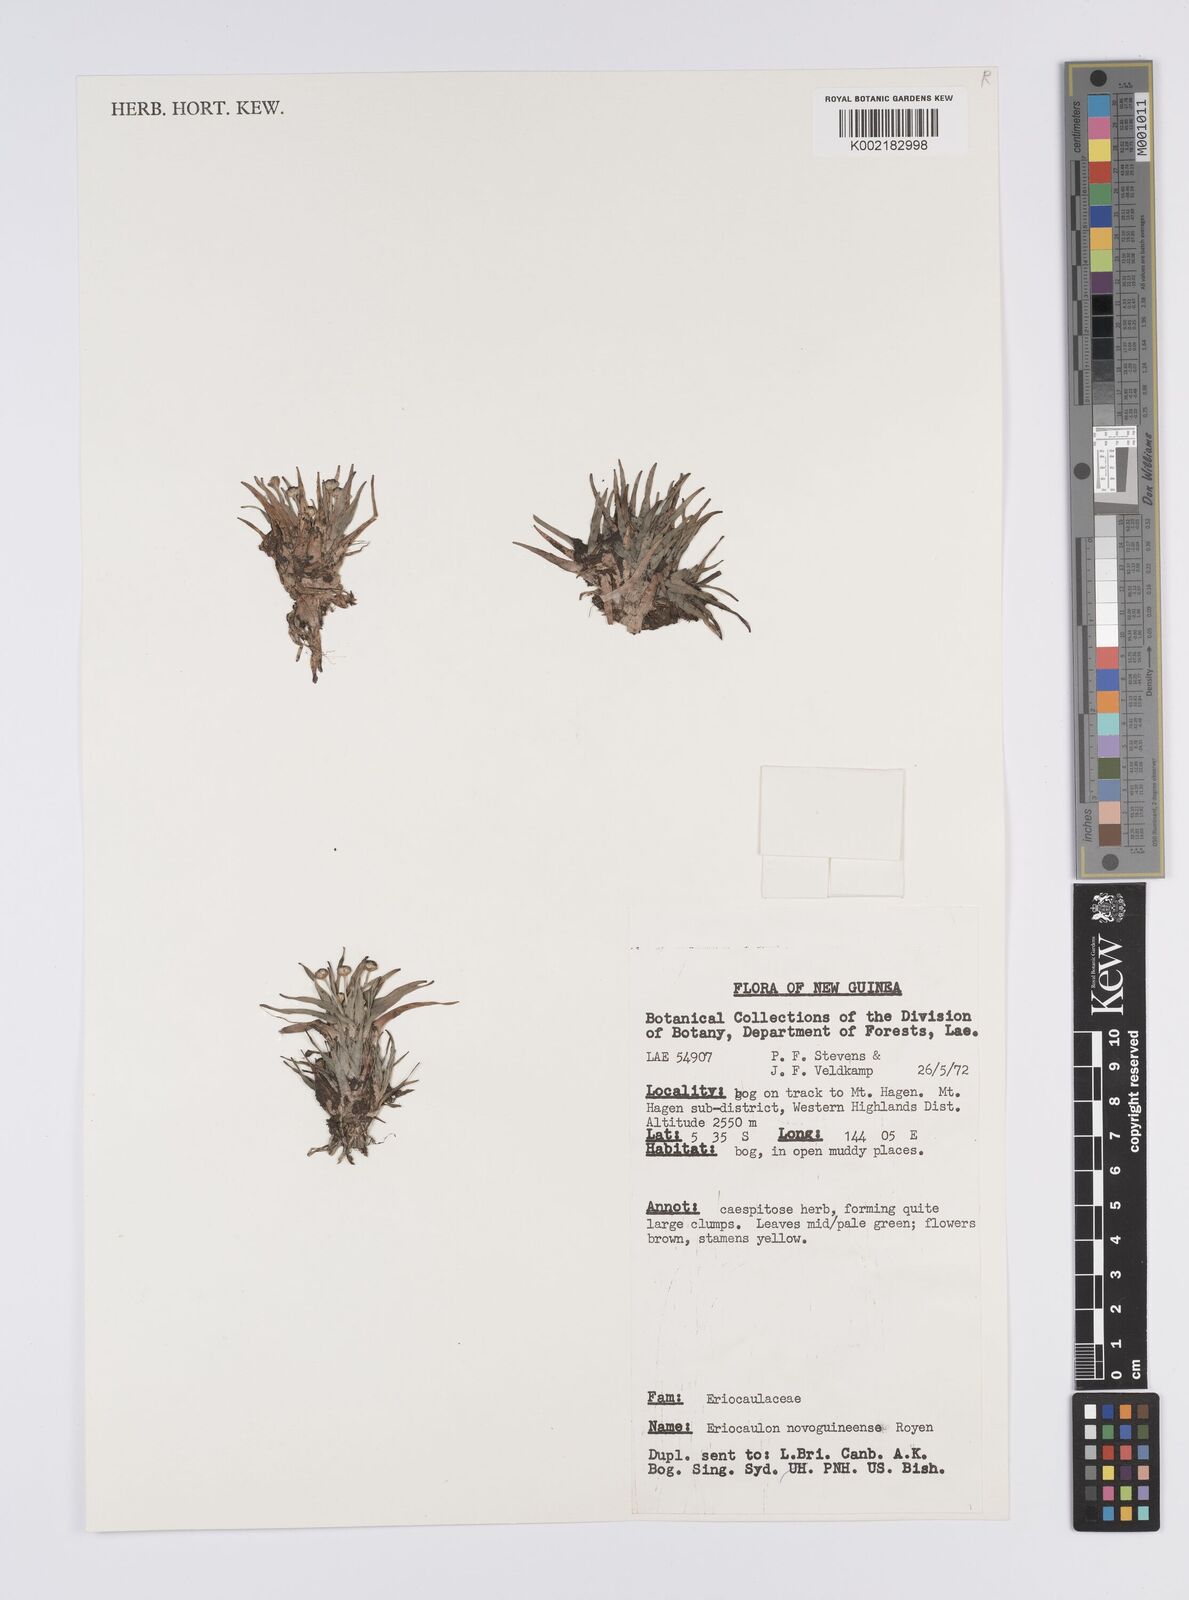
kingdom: Plantae
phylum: Tracheophyta
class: Liliopsida
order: Poales
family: Eriocaulaceae
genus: Eriocaulon
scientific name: Eriocaulon novoguineense
